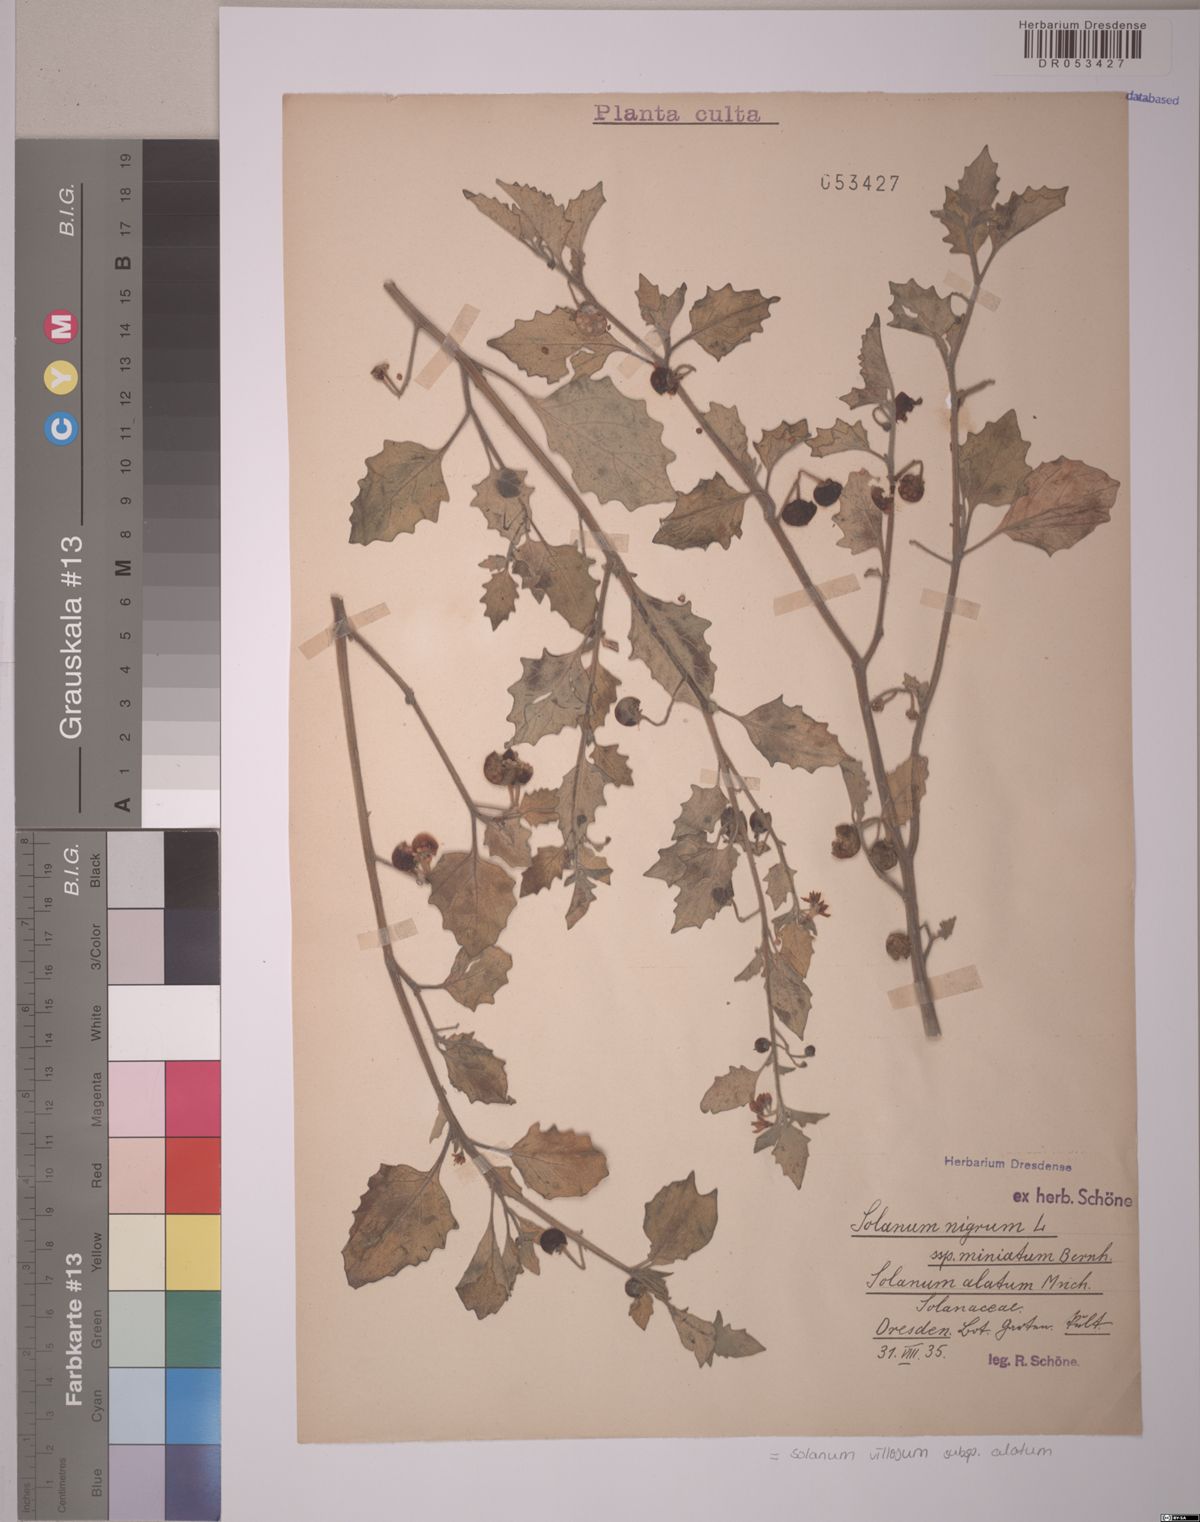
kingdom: Plantae
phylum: Tracheophyta
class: Magnoliopsida
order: Solanales
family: Solanaceae
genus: Solanum
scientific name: Solanum alatum
